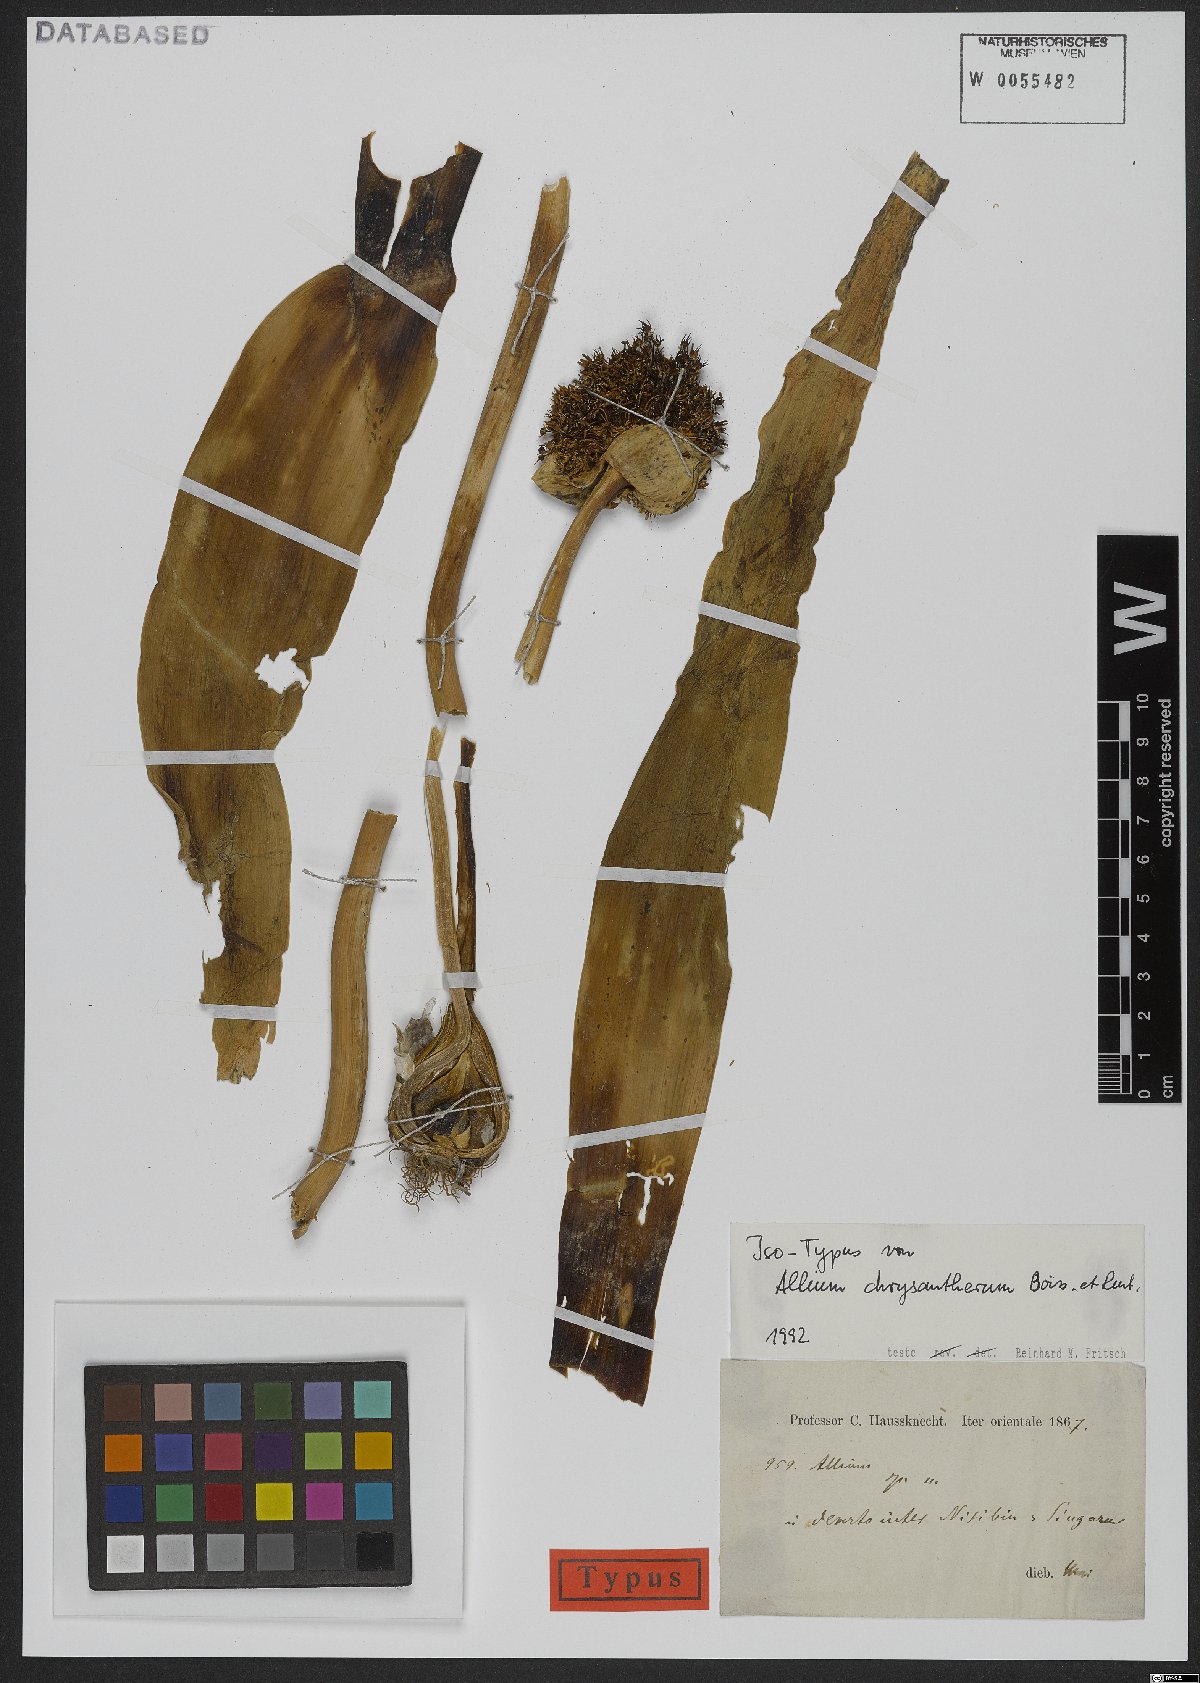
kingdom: Plantae
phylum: Tracheophyta
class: Liliopsida
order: Asparagales
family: Amaryllidaceae
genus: Allium
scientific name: Allium chrysantherum
